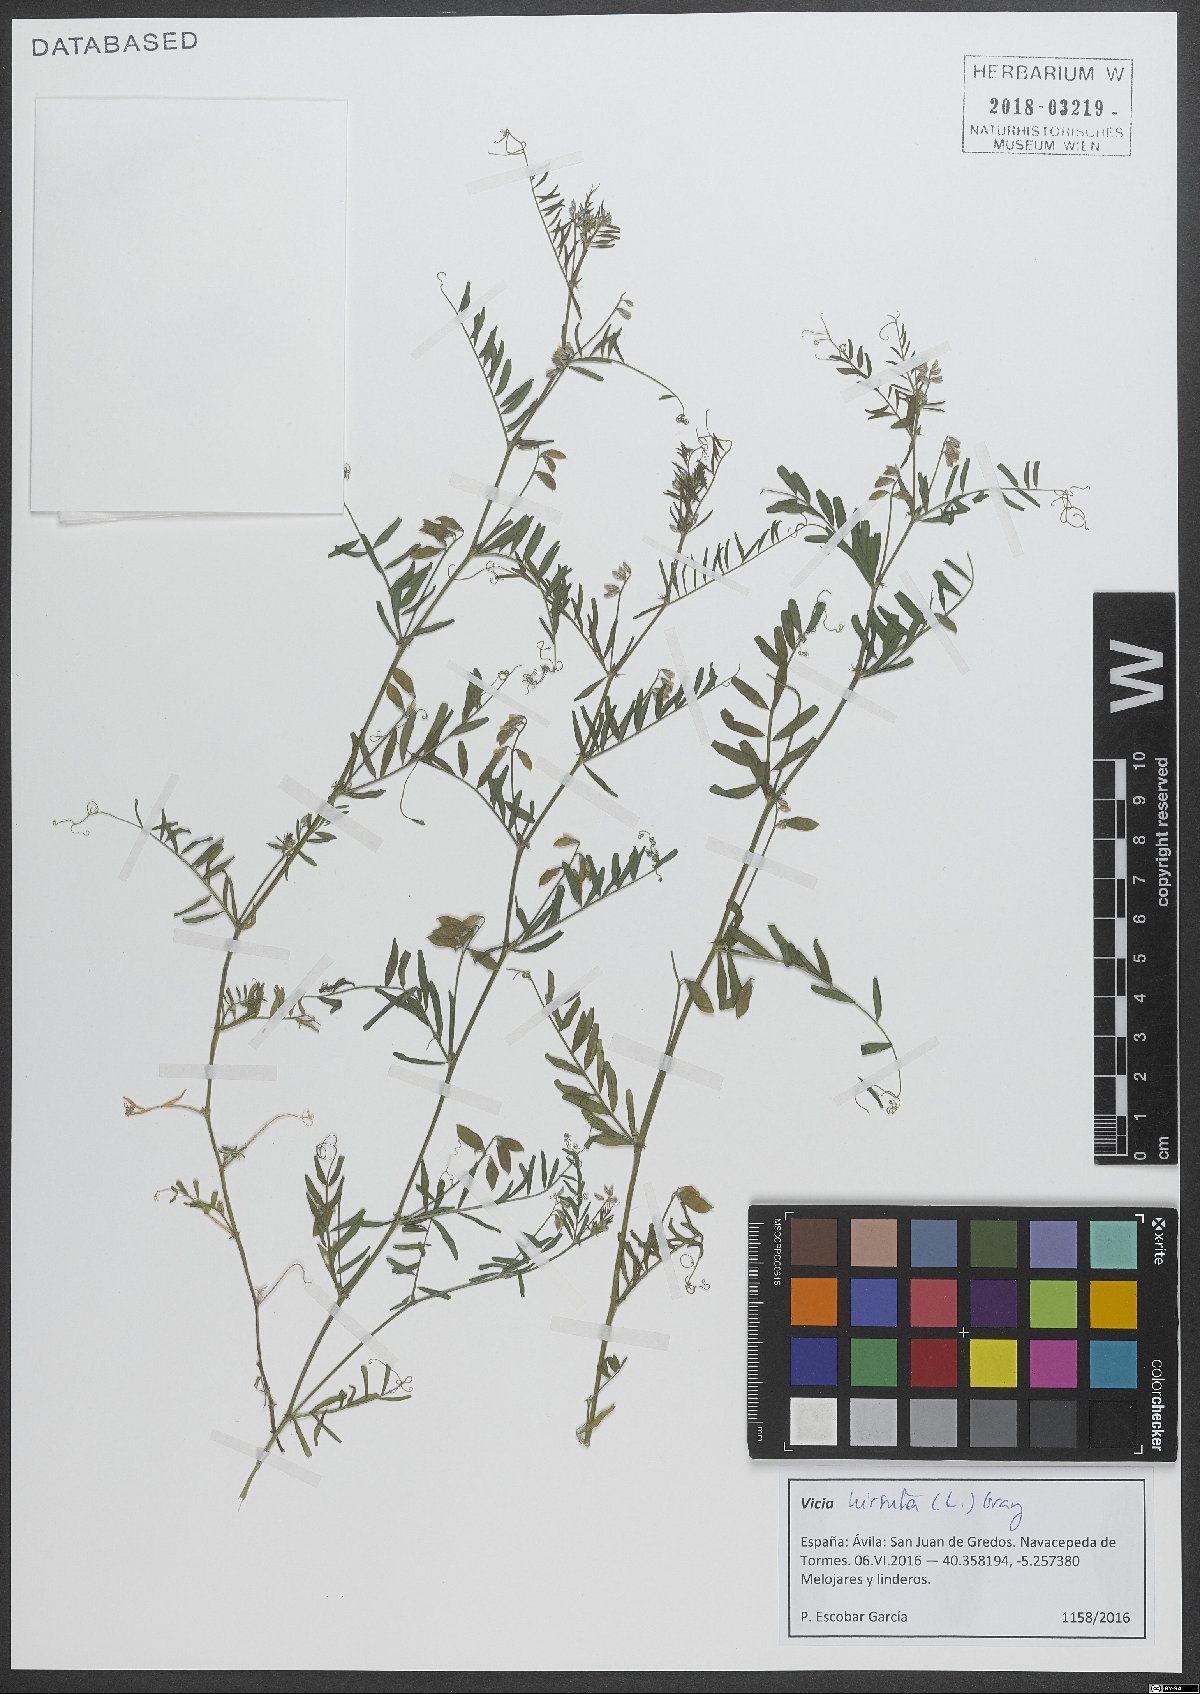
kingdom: Plantae
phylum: Tracheophyta
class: Magnoliopsida
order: Fabales
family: Fabaceae
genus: Vicia
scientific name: Vicia hirsuta
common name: Tiny vetch
